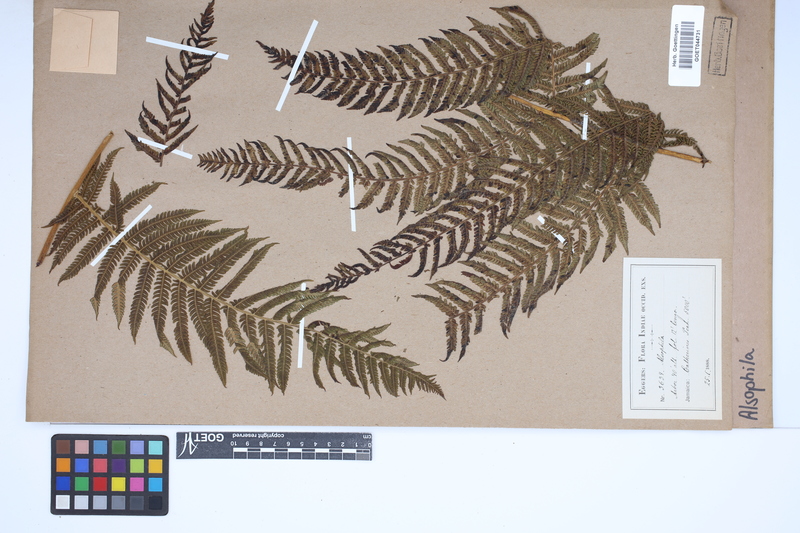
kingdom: Plantae
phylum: Tracheophyta
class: Polypodiopsida
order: Cyatheales
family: Cyatheaceae
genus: Alsophila
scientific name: Alsophila
